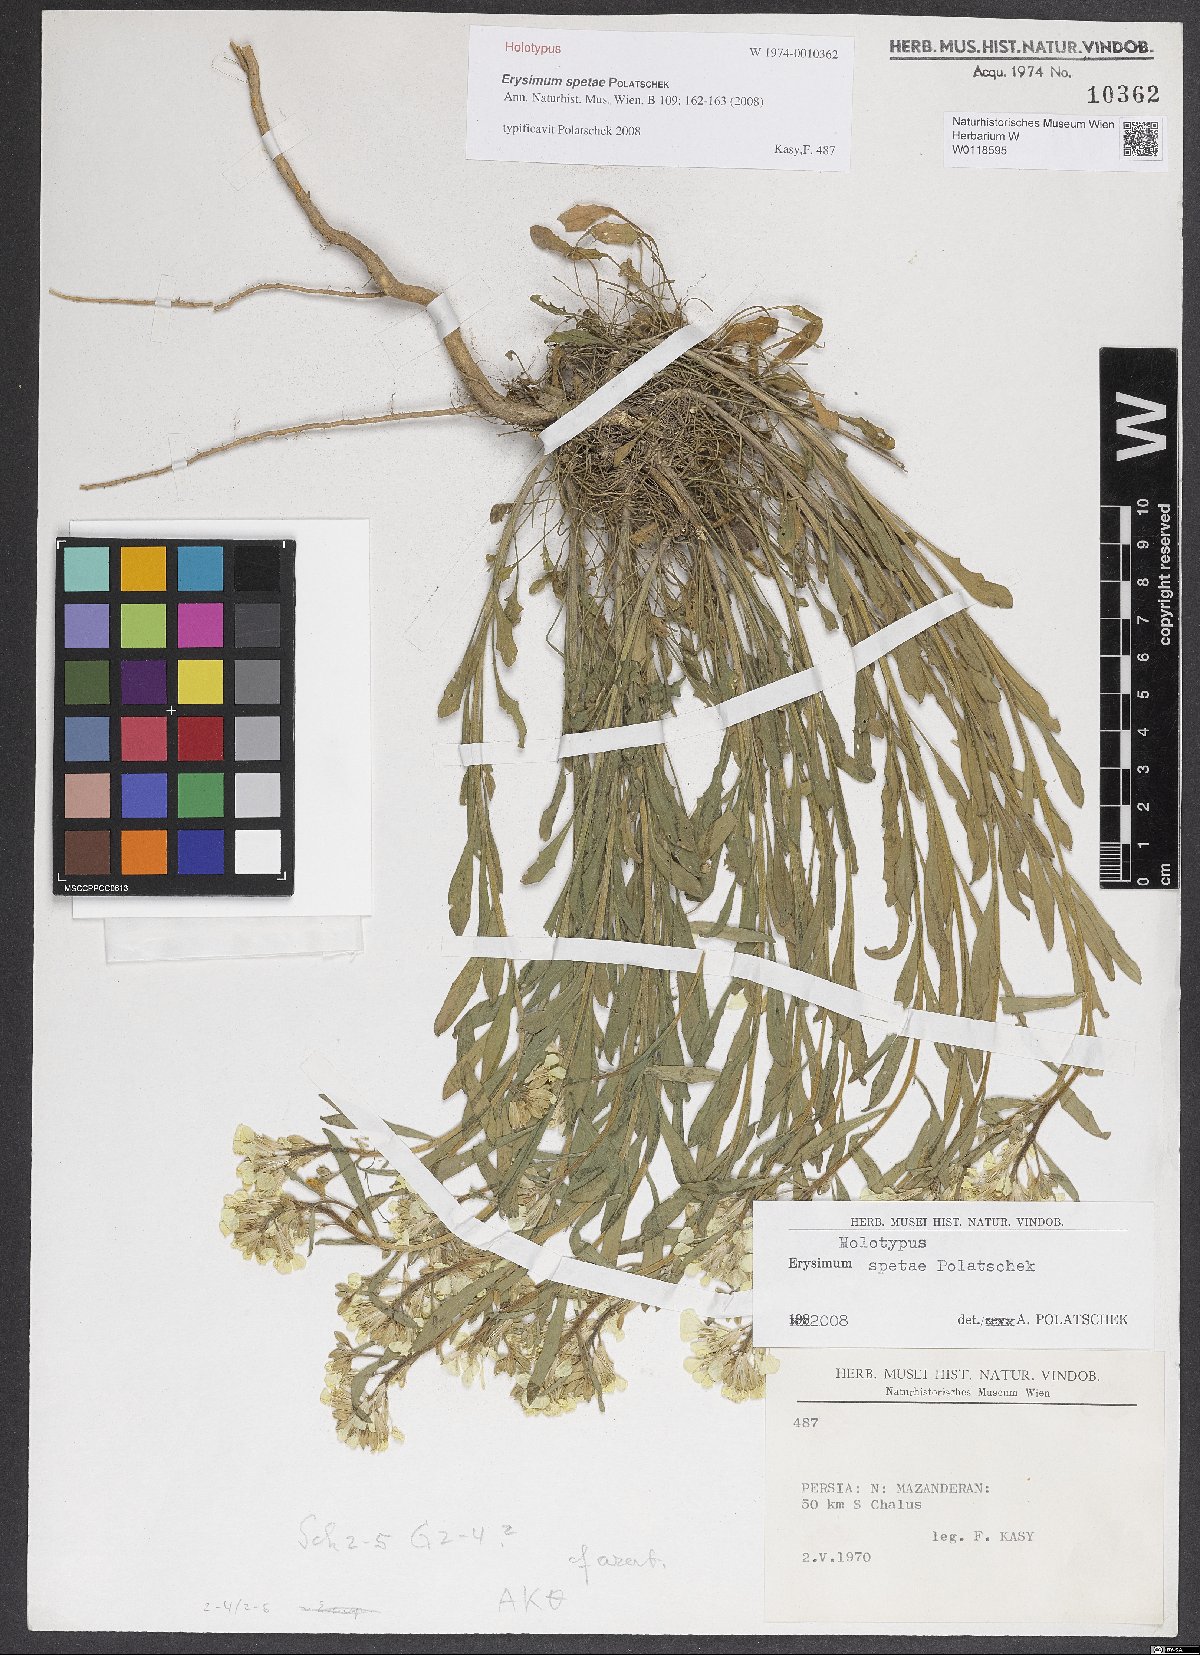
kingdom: Plantae
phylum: Tracheophyta
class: Magnoliopsida
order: Brassicales
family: Brassicaceae
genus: Erysimum
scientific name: Erysimum spetae
